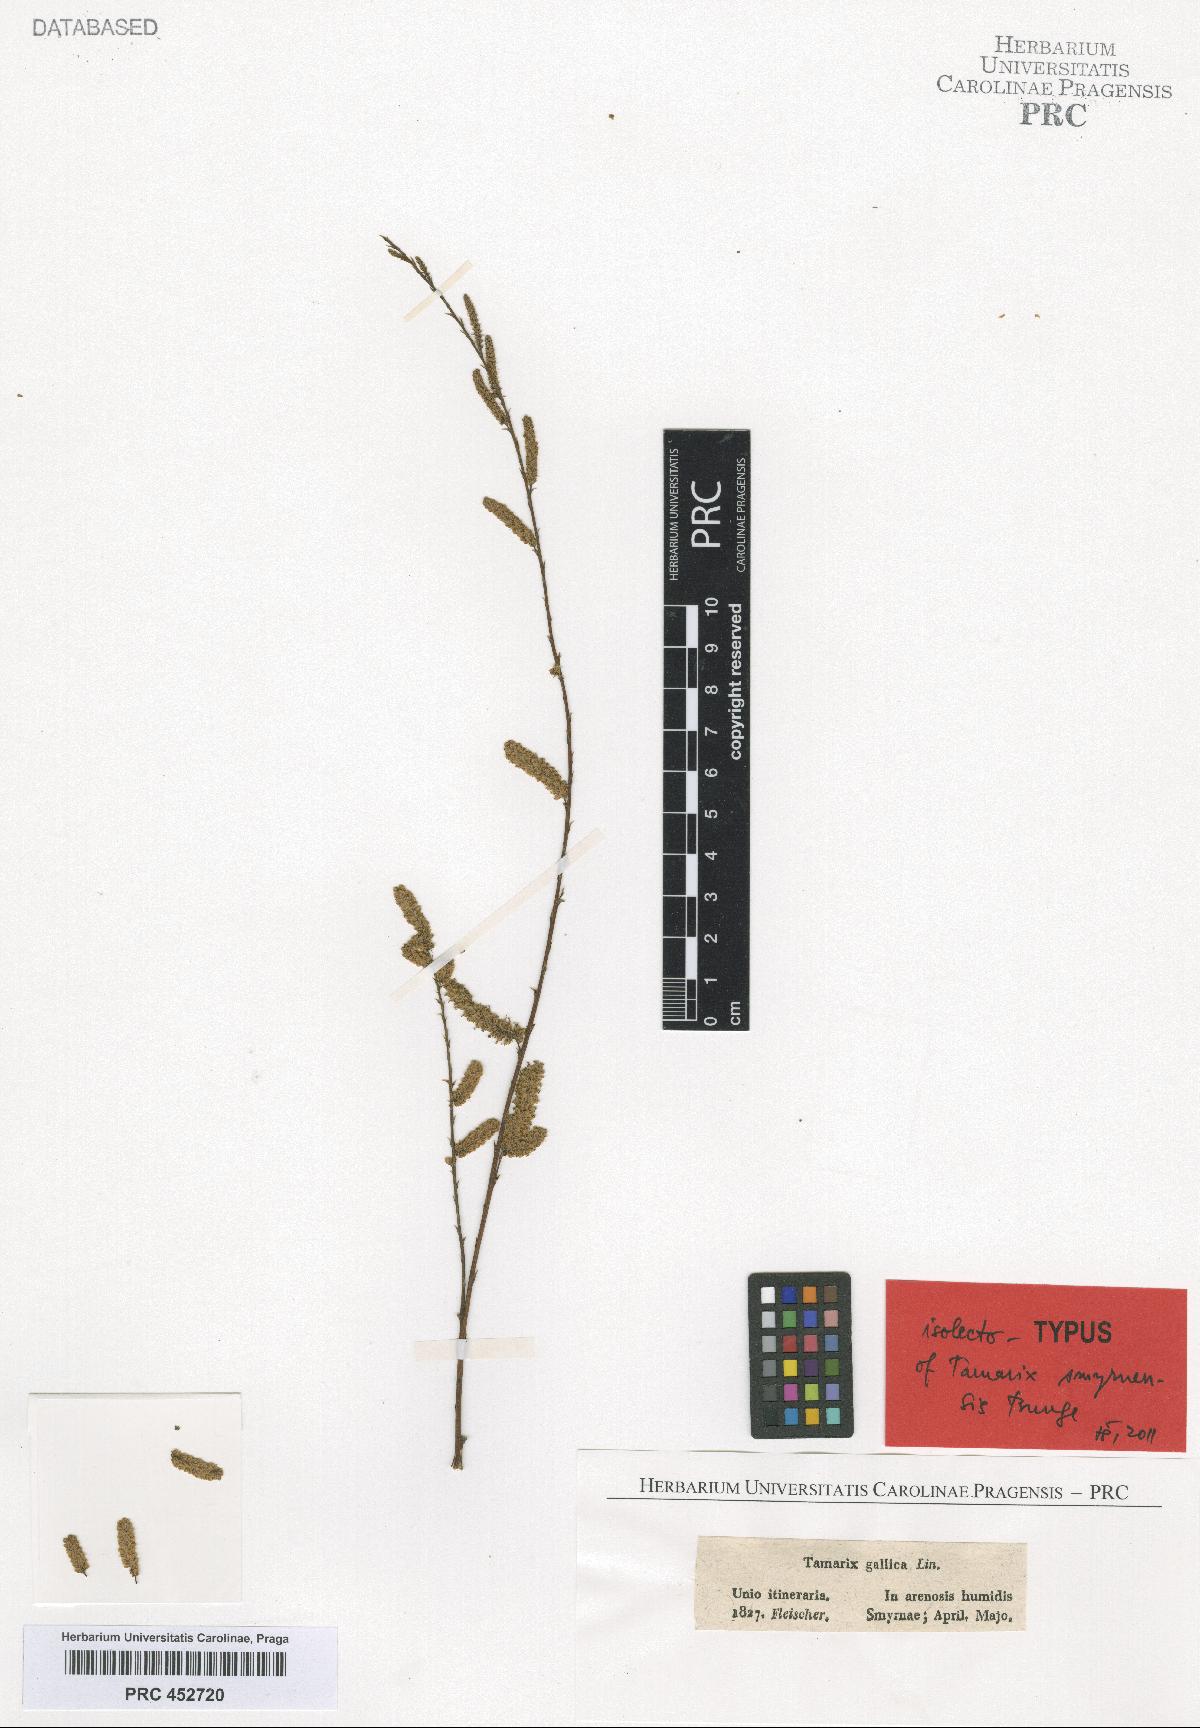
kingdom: Plantae
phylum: Tracheophyta
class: Magnoliopsida
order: Caryophyllales
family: Tamaricaceae
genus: Tamarix
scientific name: Tamarix smyrnensis
